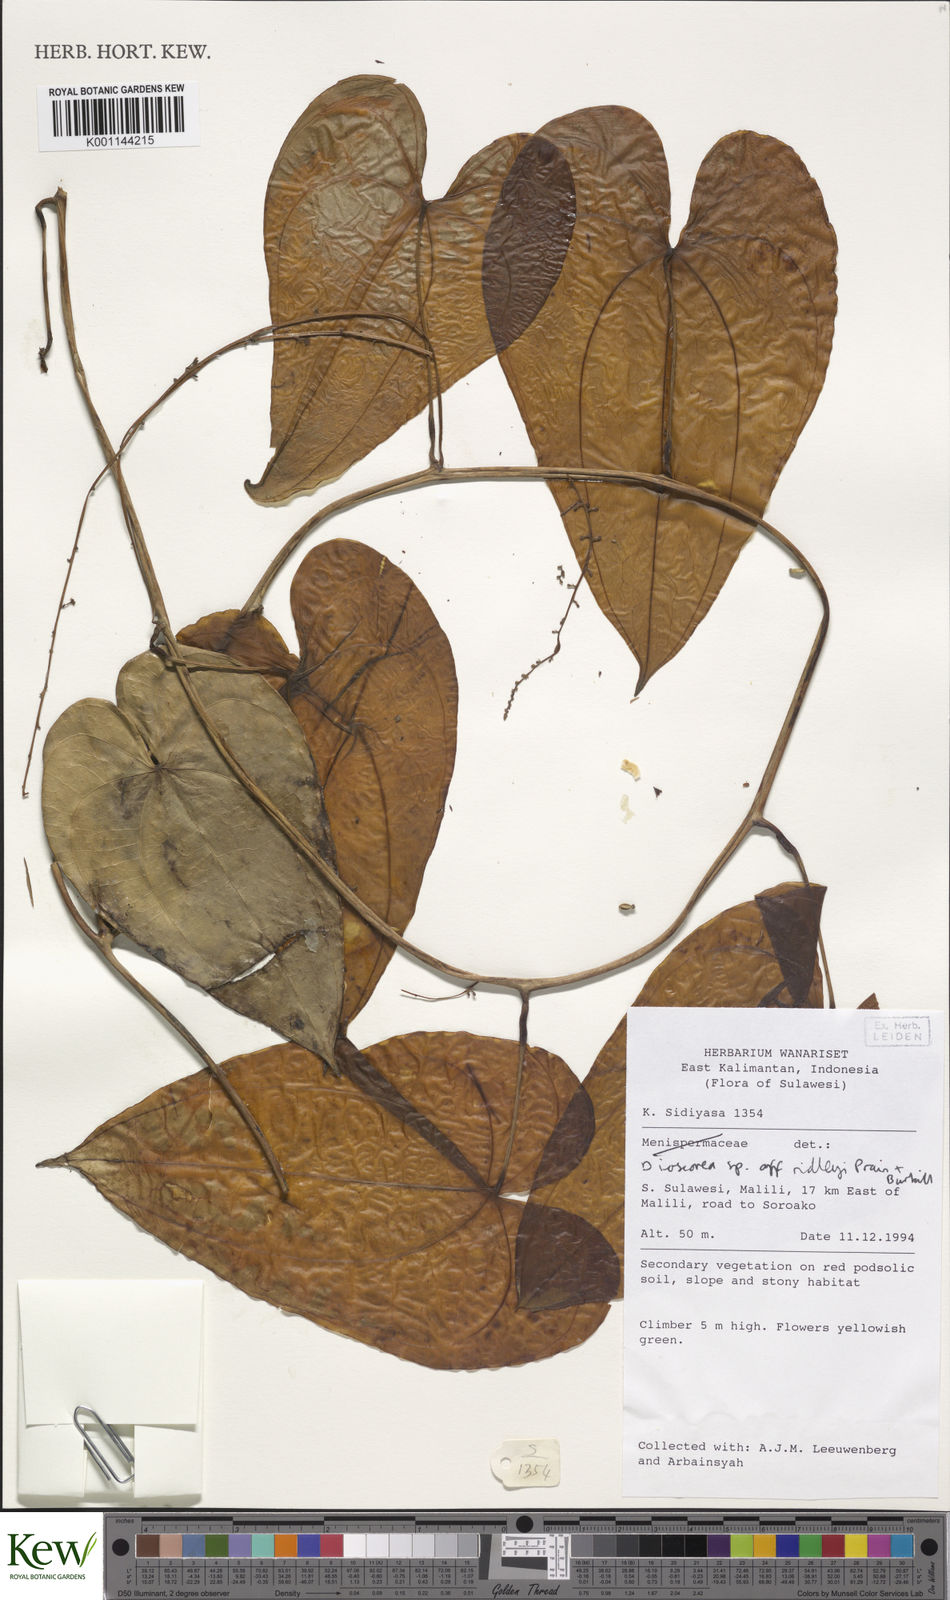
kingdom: Plantae
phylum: Tracheophyta
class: Liliopsida
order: Dioscoreales
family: Dioscoreaceae
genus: Dioscorea
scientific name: Dioscorea ridleyi
